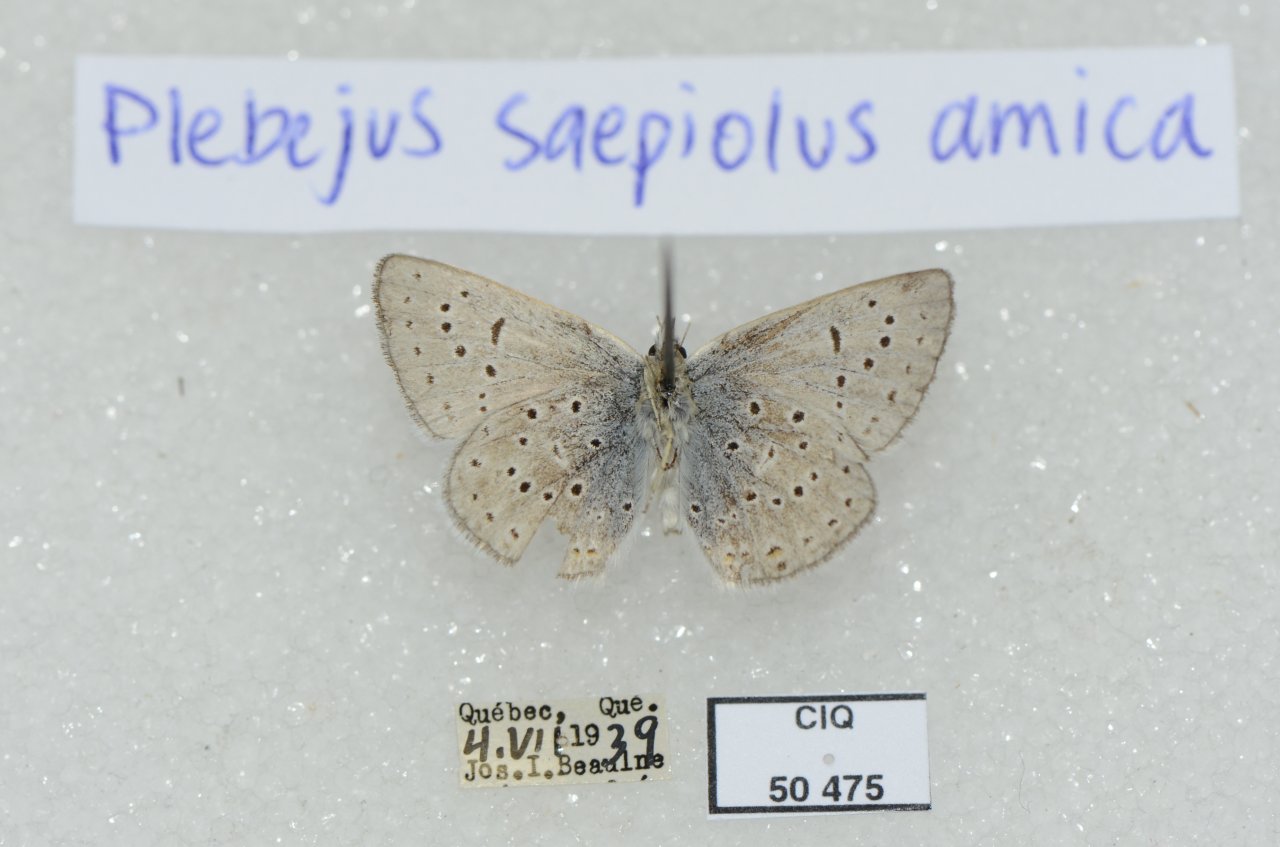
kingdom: Animalia
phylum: Arthropoda
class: Insecta
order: Lepidoptera
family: Lycaenidae
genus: Plebejus
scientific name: Plebejus saepiolus
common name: Greenish Blue
